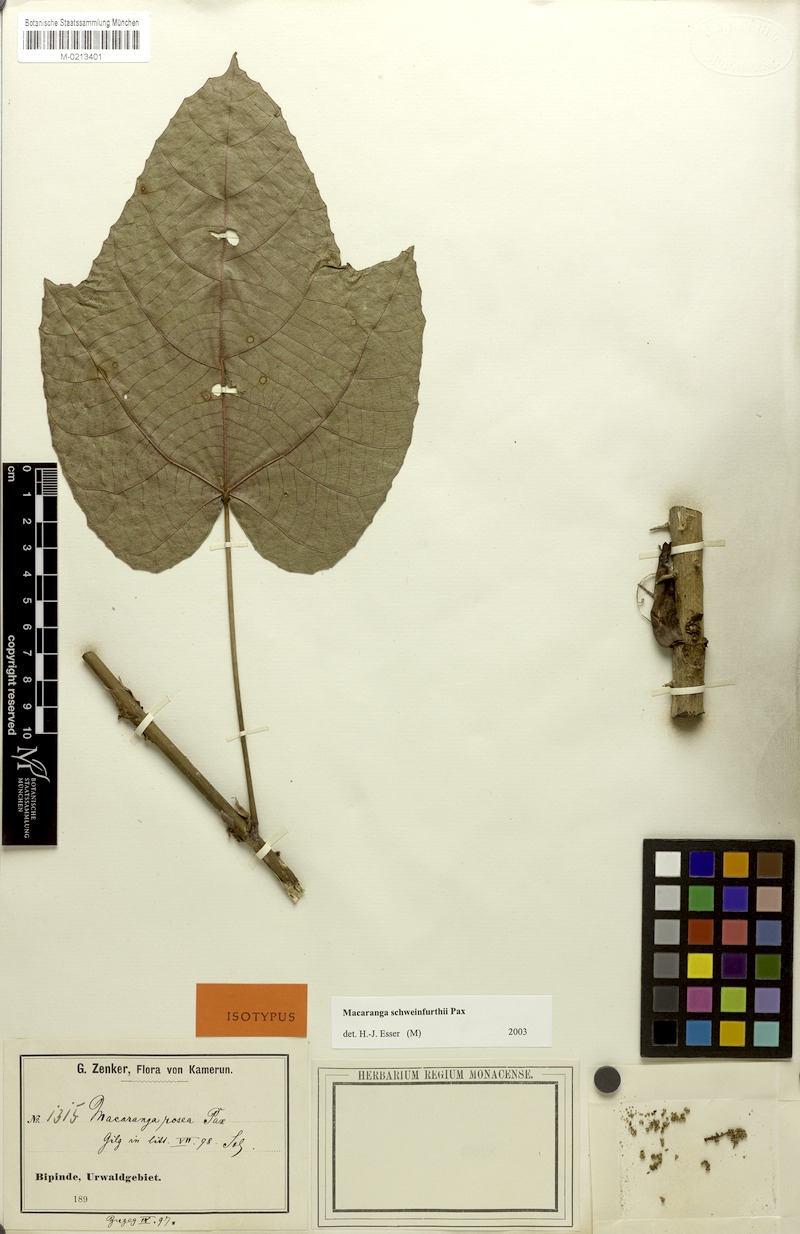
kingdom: Plantae
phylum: Tracheophyta
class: Magnoliopsida
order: Malpighiales
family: Euphorbiaceae
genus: Macaranga
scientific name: Macaranga schweinfurthii
